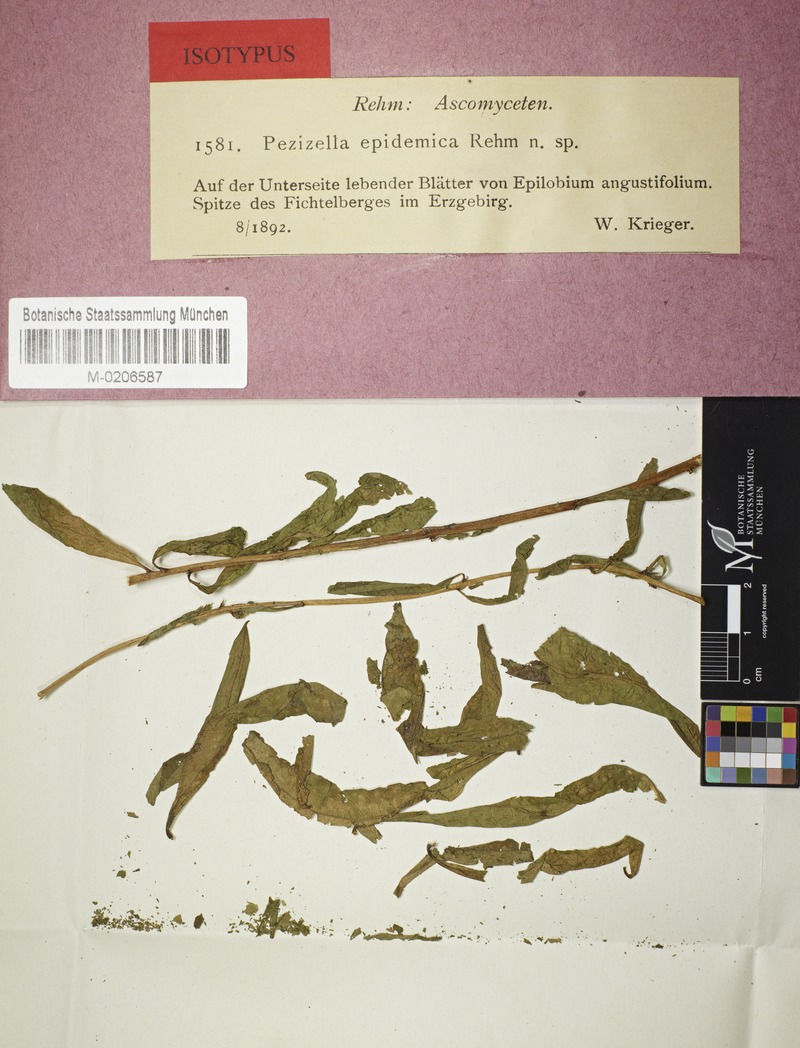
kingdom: Fungi
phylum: Ascomycota
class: Leotiomycetes
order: Helotiales
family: Pezizellaceae
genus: Pezizella
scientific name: Pezizella epidemica
